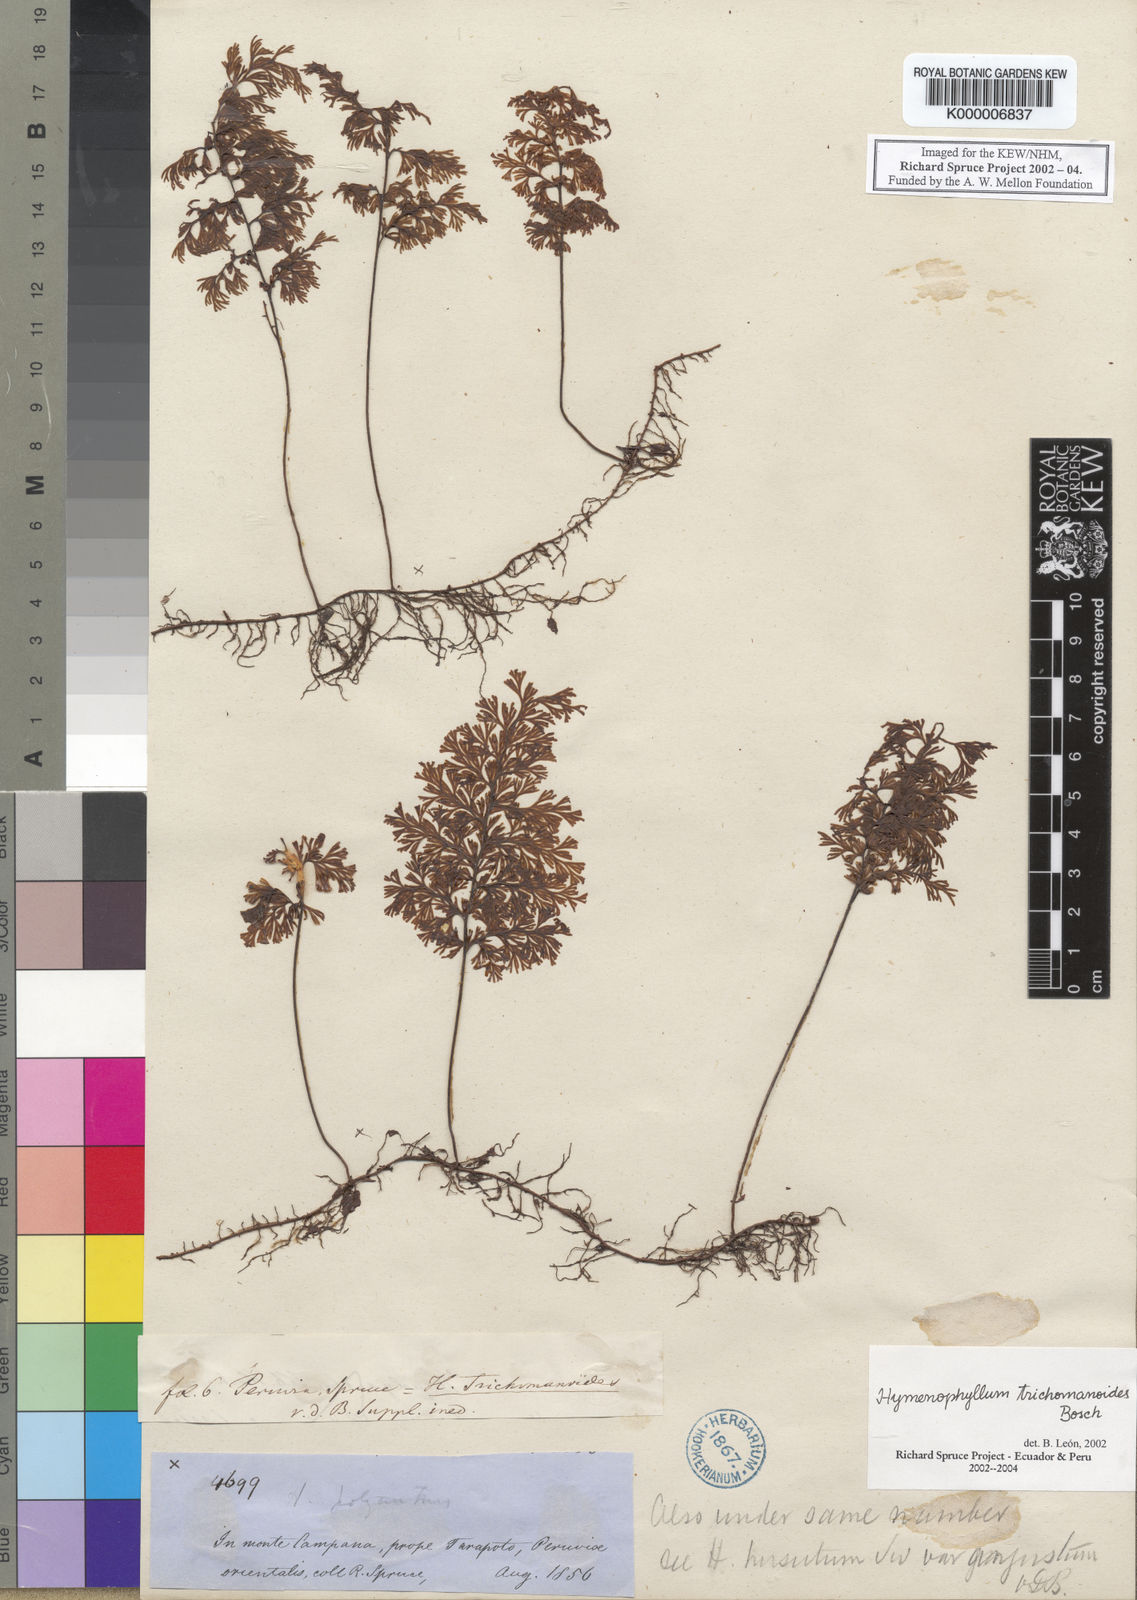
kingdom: Plantae
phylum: Tracheophyta
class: Polypodiopsida
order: Hymenophyllales
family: Hymenophyllaceae
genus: Hymenophyllum
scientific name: Hymenophyllum trichomanoides
